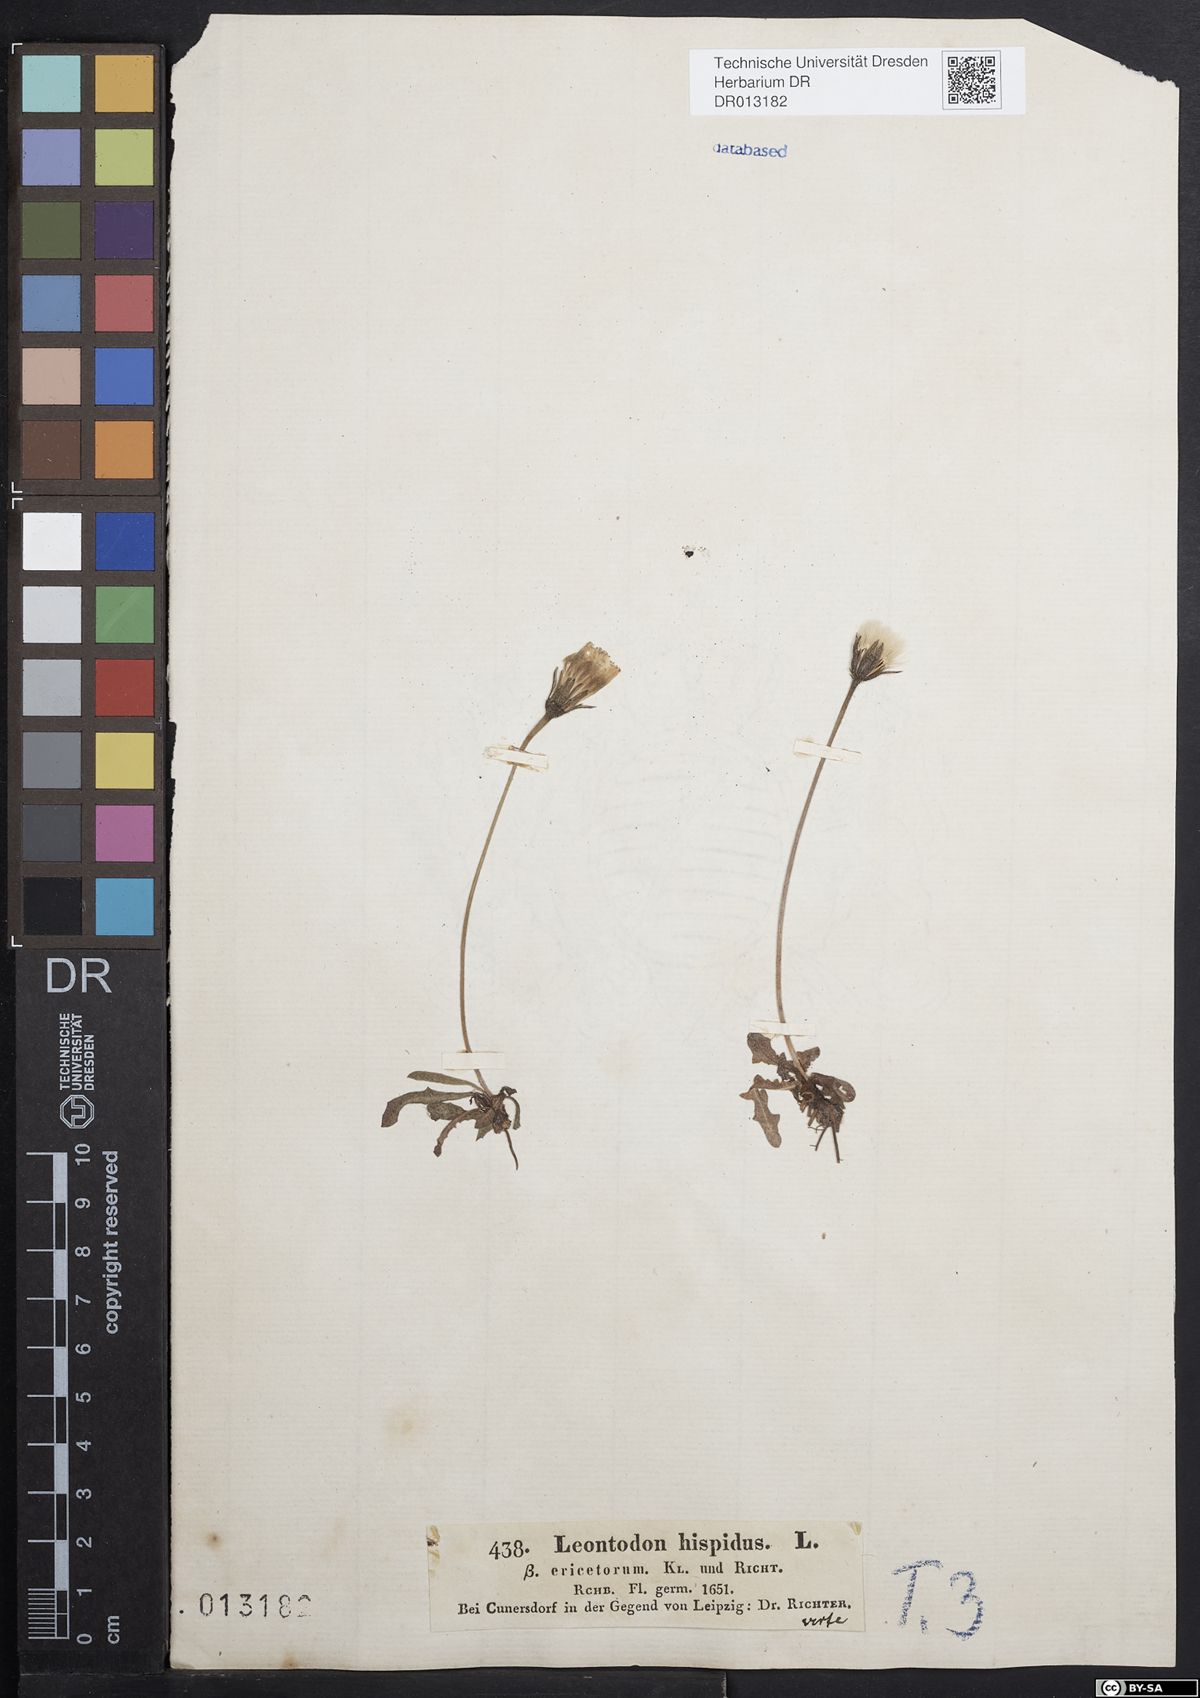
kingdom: Plantae
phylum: Tracheophyta
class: Magnoliopsida
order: Asterales
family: Asteraceae
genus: Leontodon
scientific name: Leontodon hispidus
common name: Rough hawkbit
